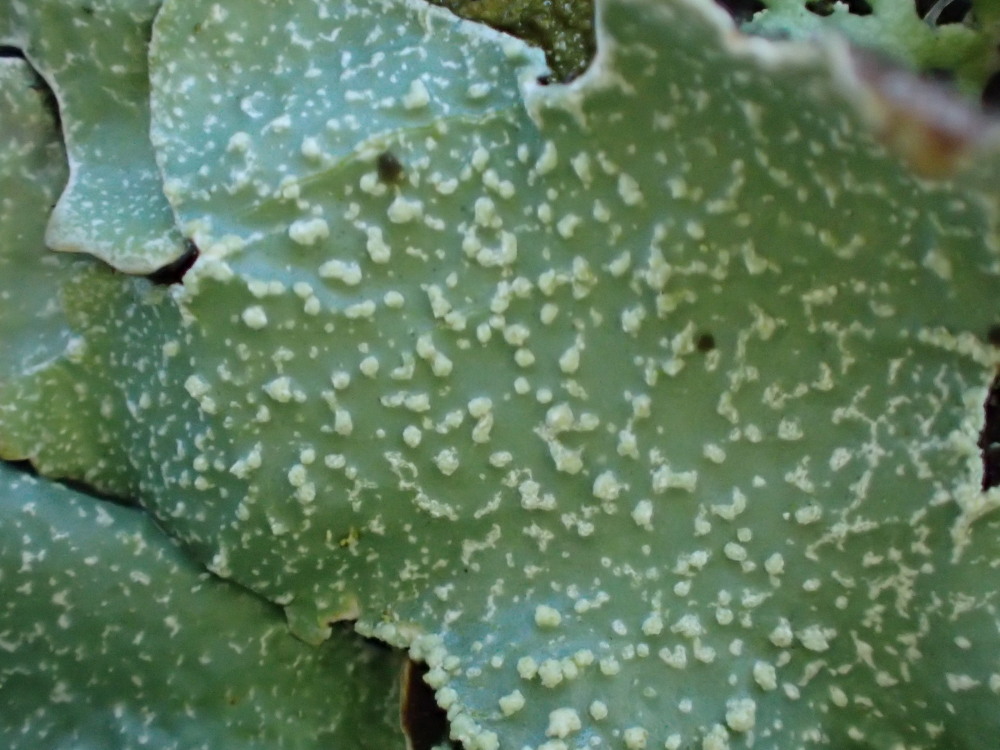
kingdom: Fungi
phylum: Ascomycota
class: Lecanoromycetes
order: Lecanorales
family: Parmeliaceae
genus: Parmelia
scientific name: Parmelia submontana
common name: langlobet skållav
